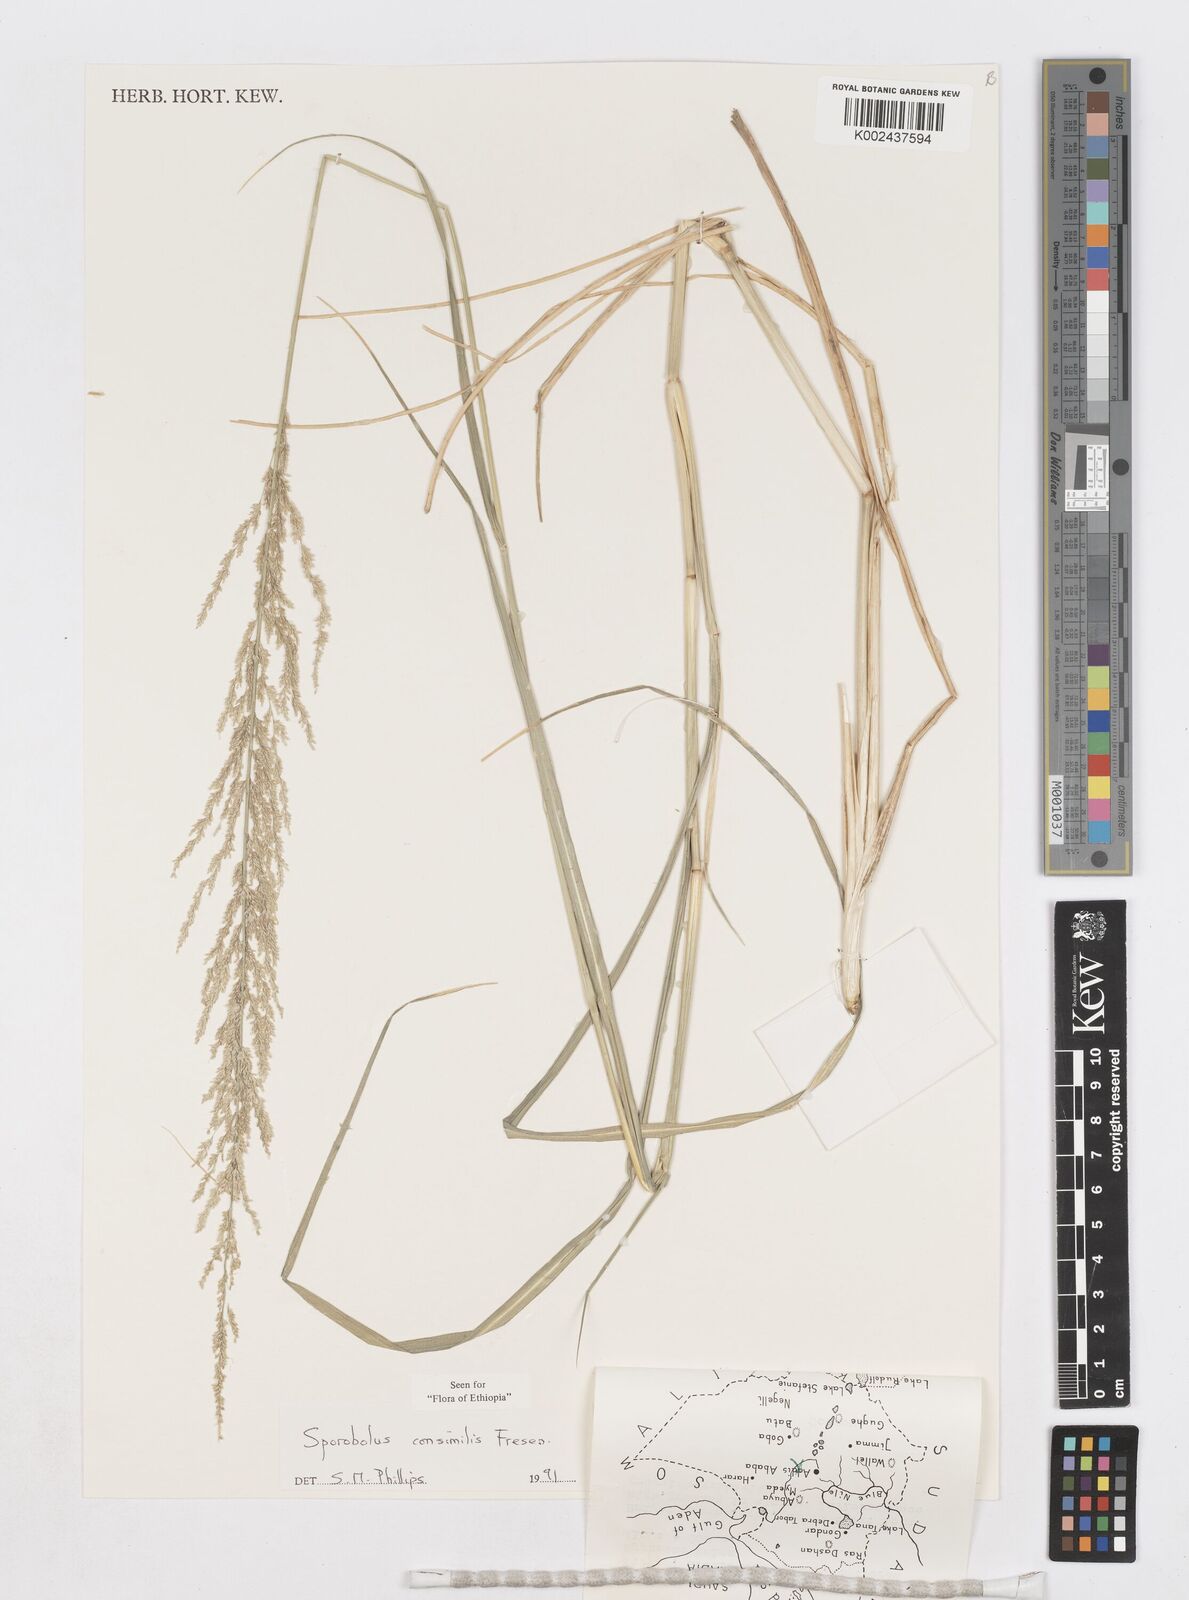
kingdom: Plantae
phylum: Tracheophyta
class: Liliopsida
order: Poales
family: Poaceae
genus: Sporobolus
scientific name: Sporobolus consimilis
